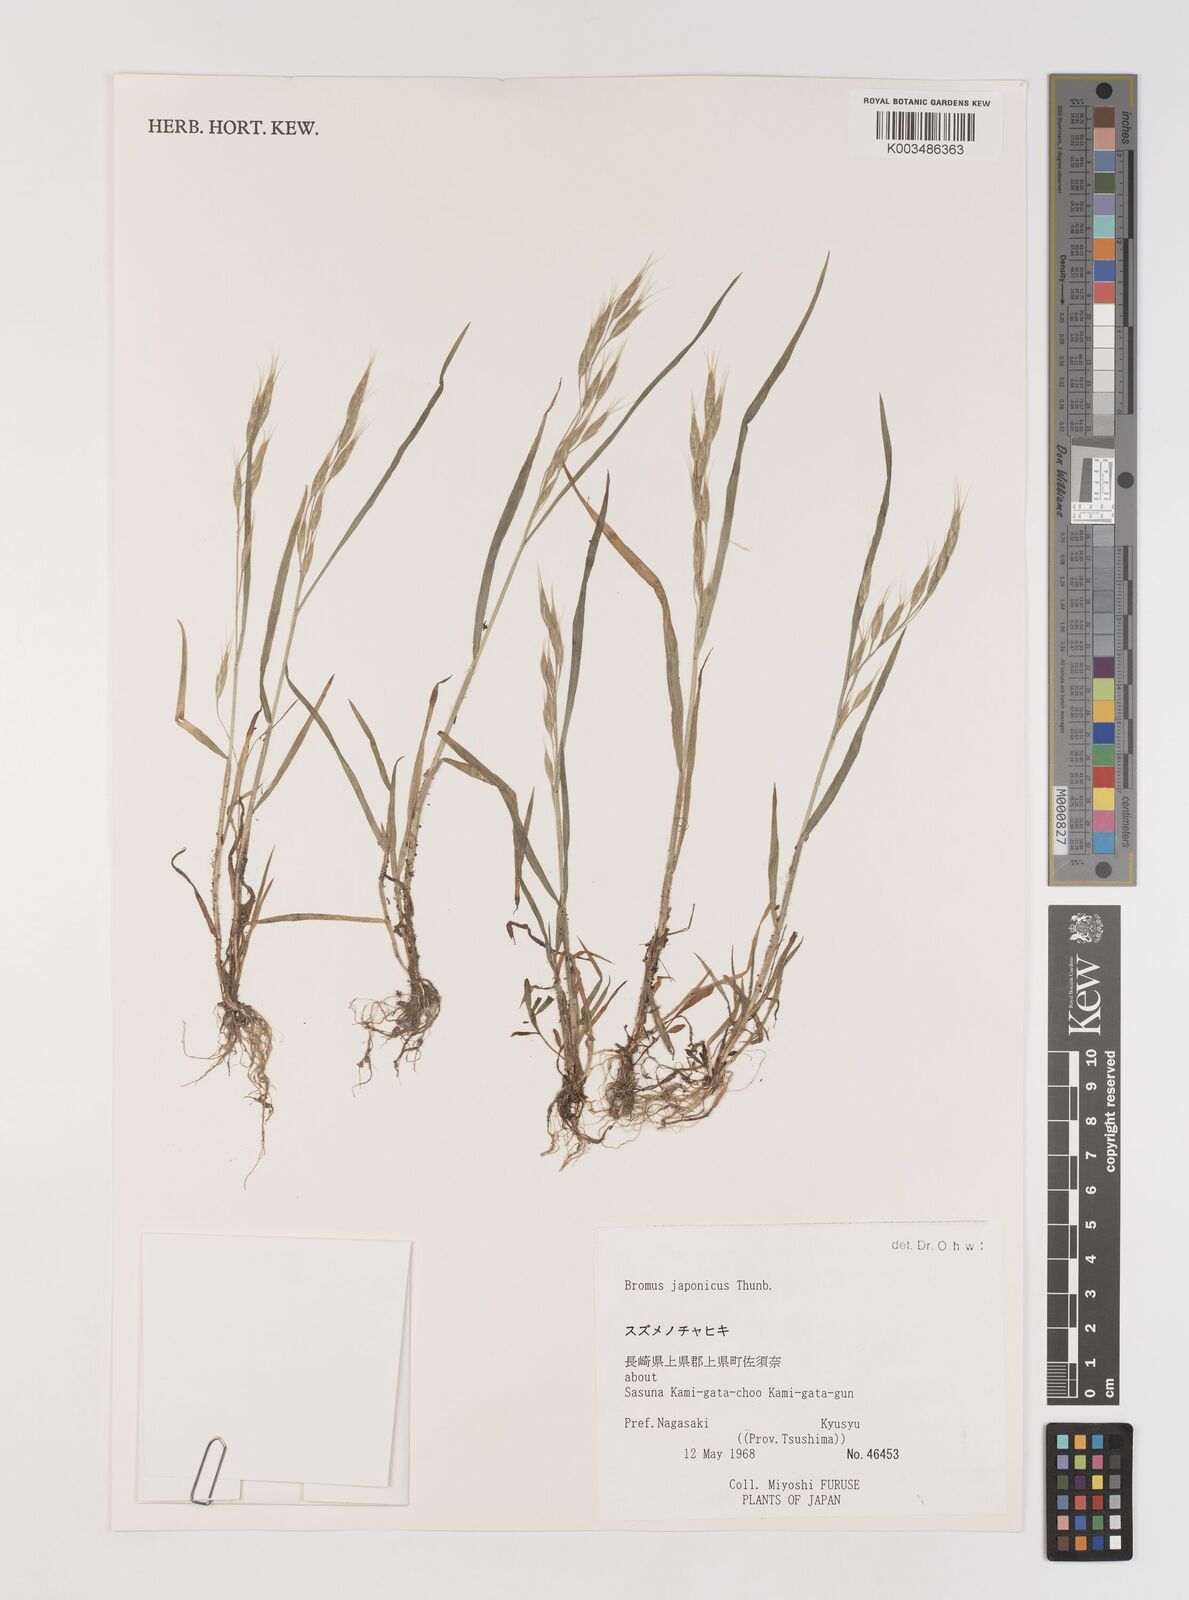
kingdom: Plantae
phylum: Tracheophyta
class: Liliopsida
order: Poales
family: Poaceae
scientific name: Poaceae
